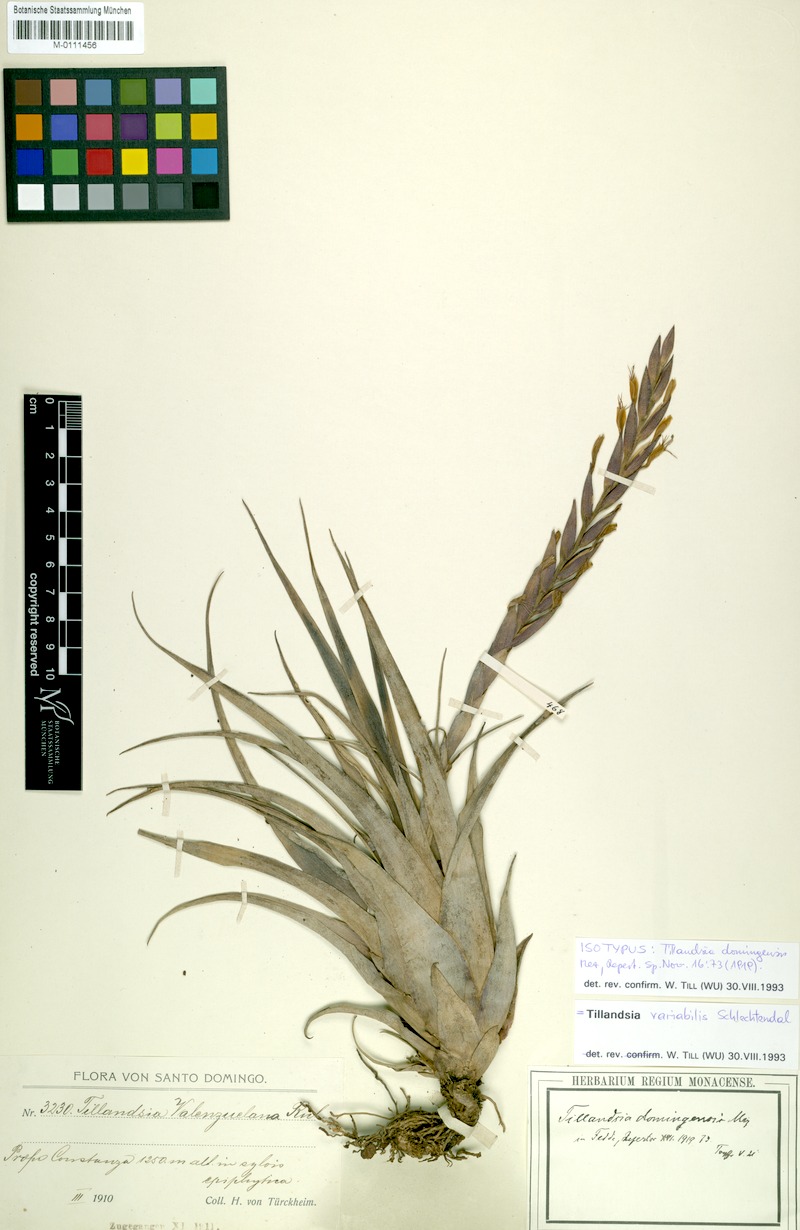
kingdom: Plantae
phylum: Tracheophyta
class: Liliopsida
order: Poales
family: Bromeliaceae
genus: Tillandsia
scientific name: Tillandsia variabilis
